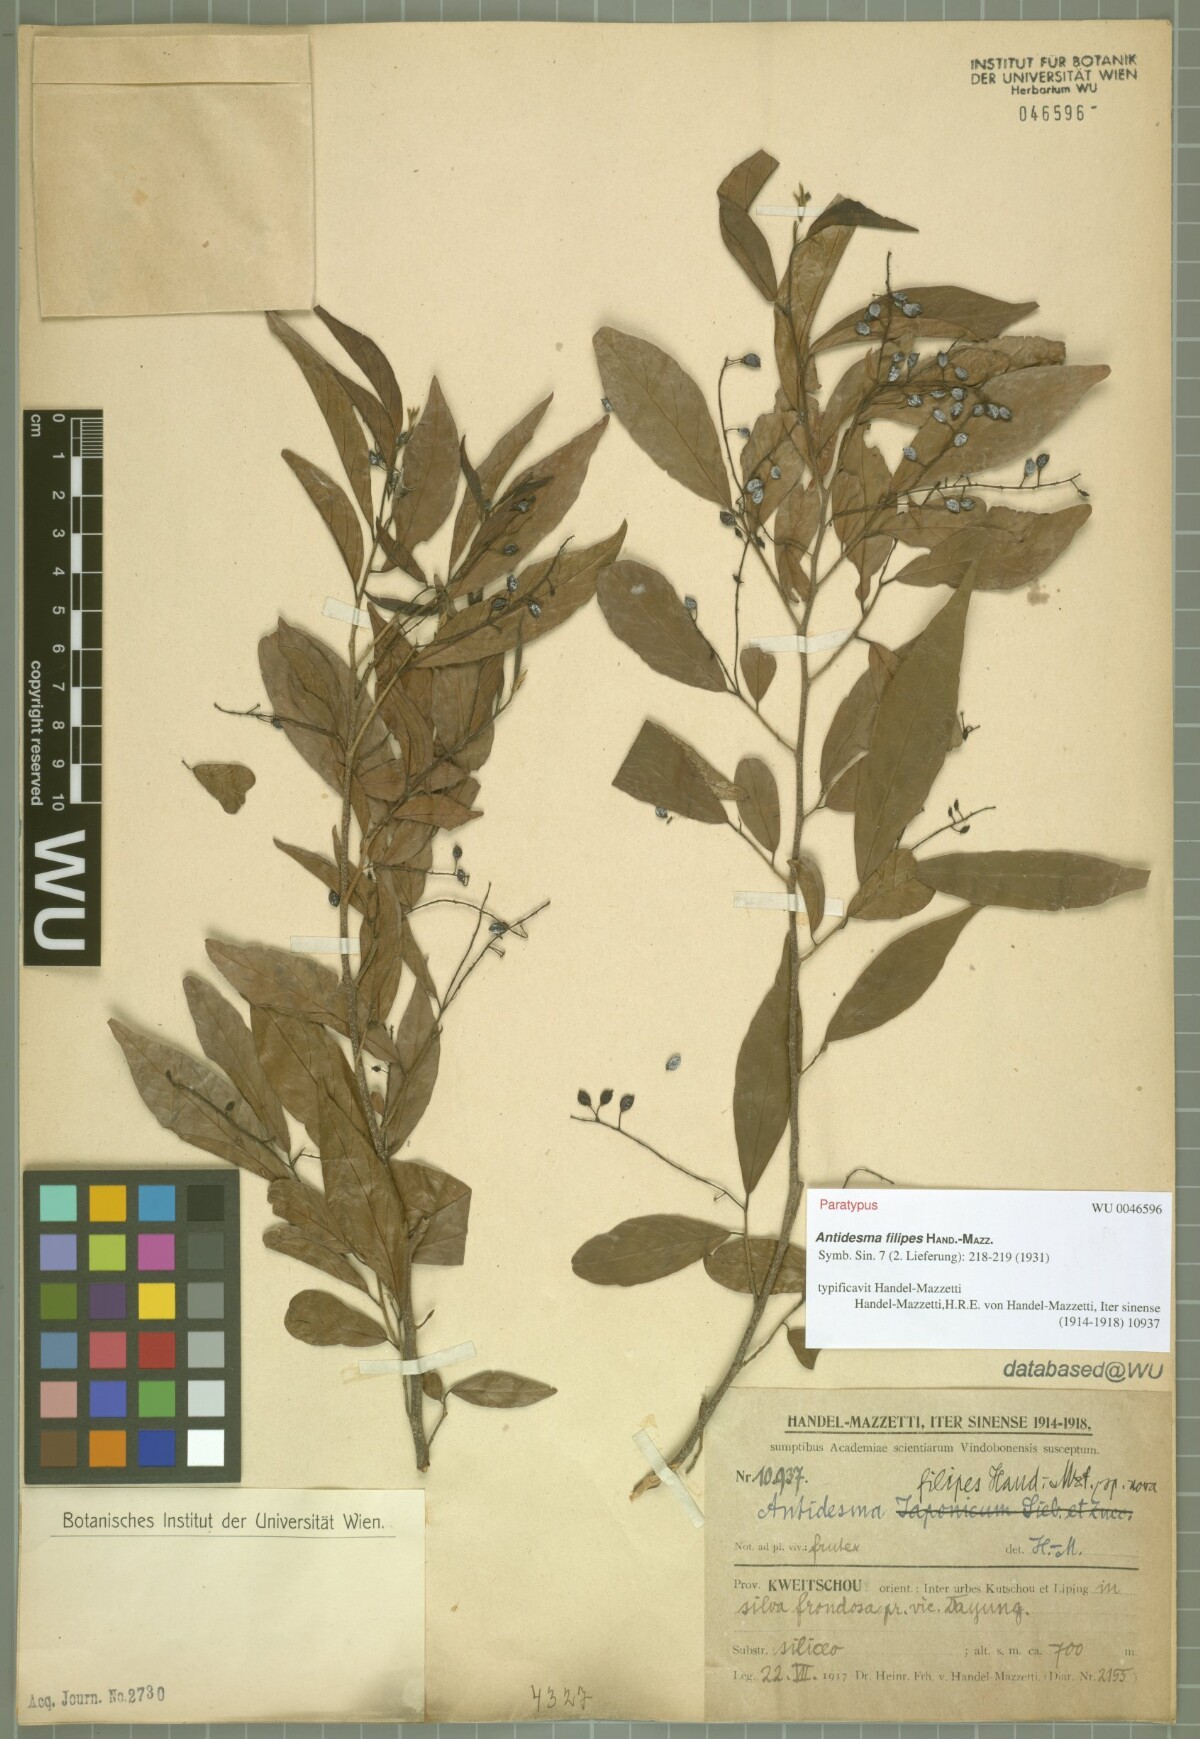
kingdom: Plantae
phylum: Tracheophyta
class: Magnoliopsida
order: Malpighiales
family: Phyllanthaceae
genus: Antidesma
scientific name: Antidesma japonicum
